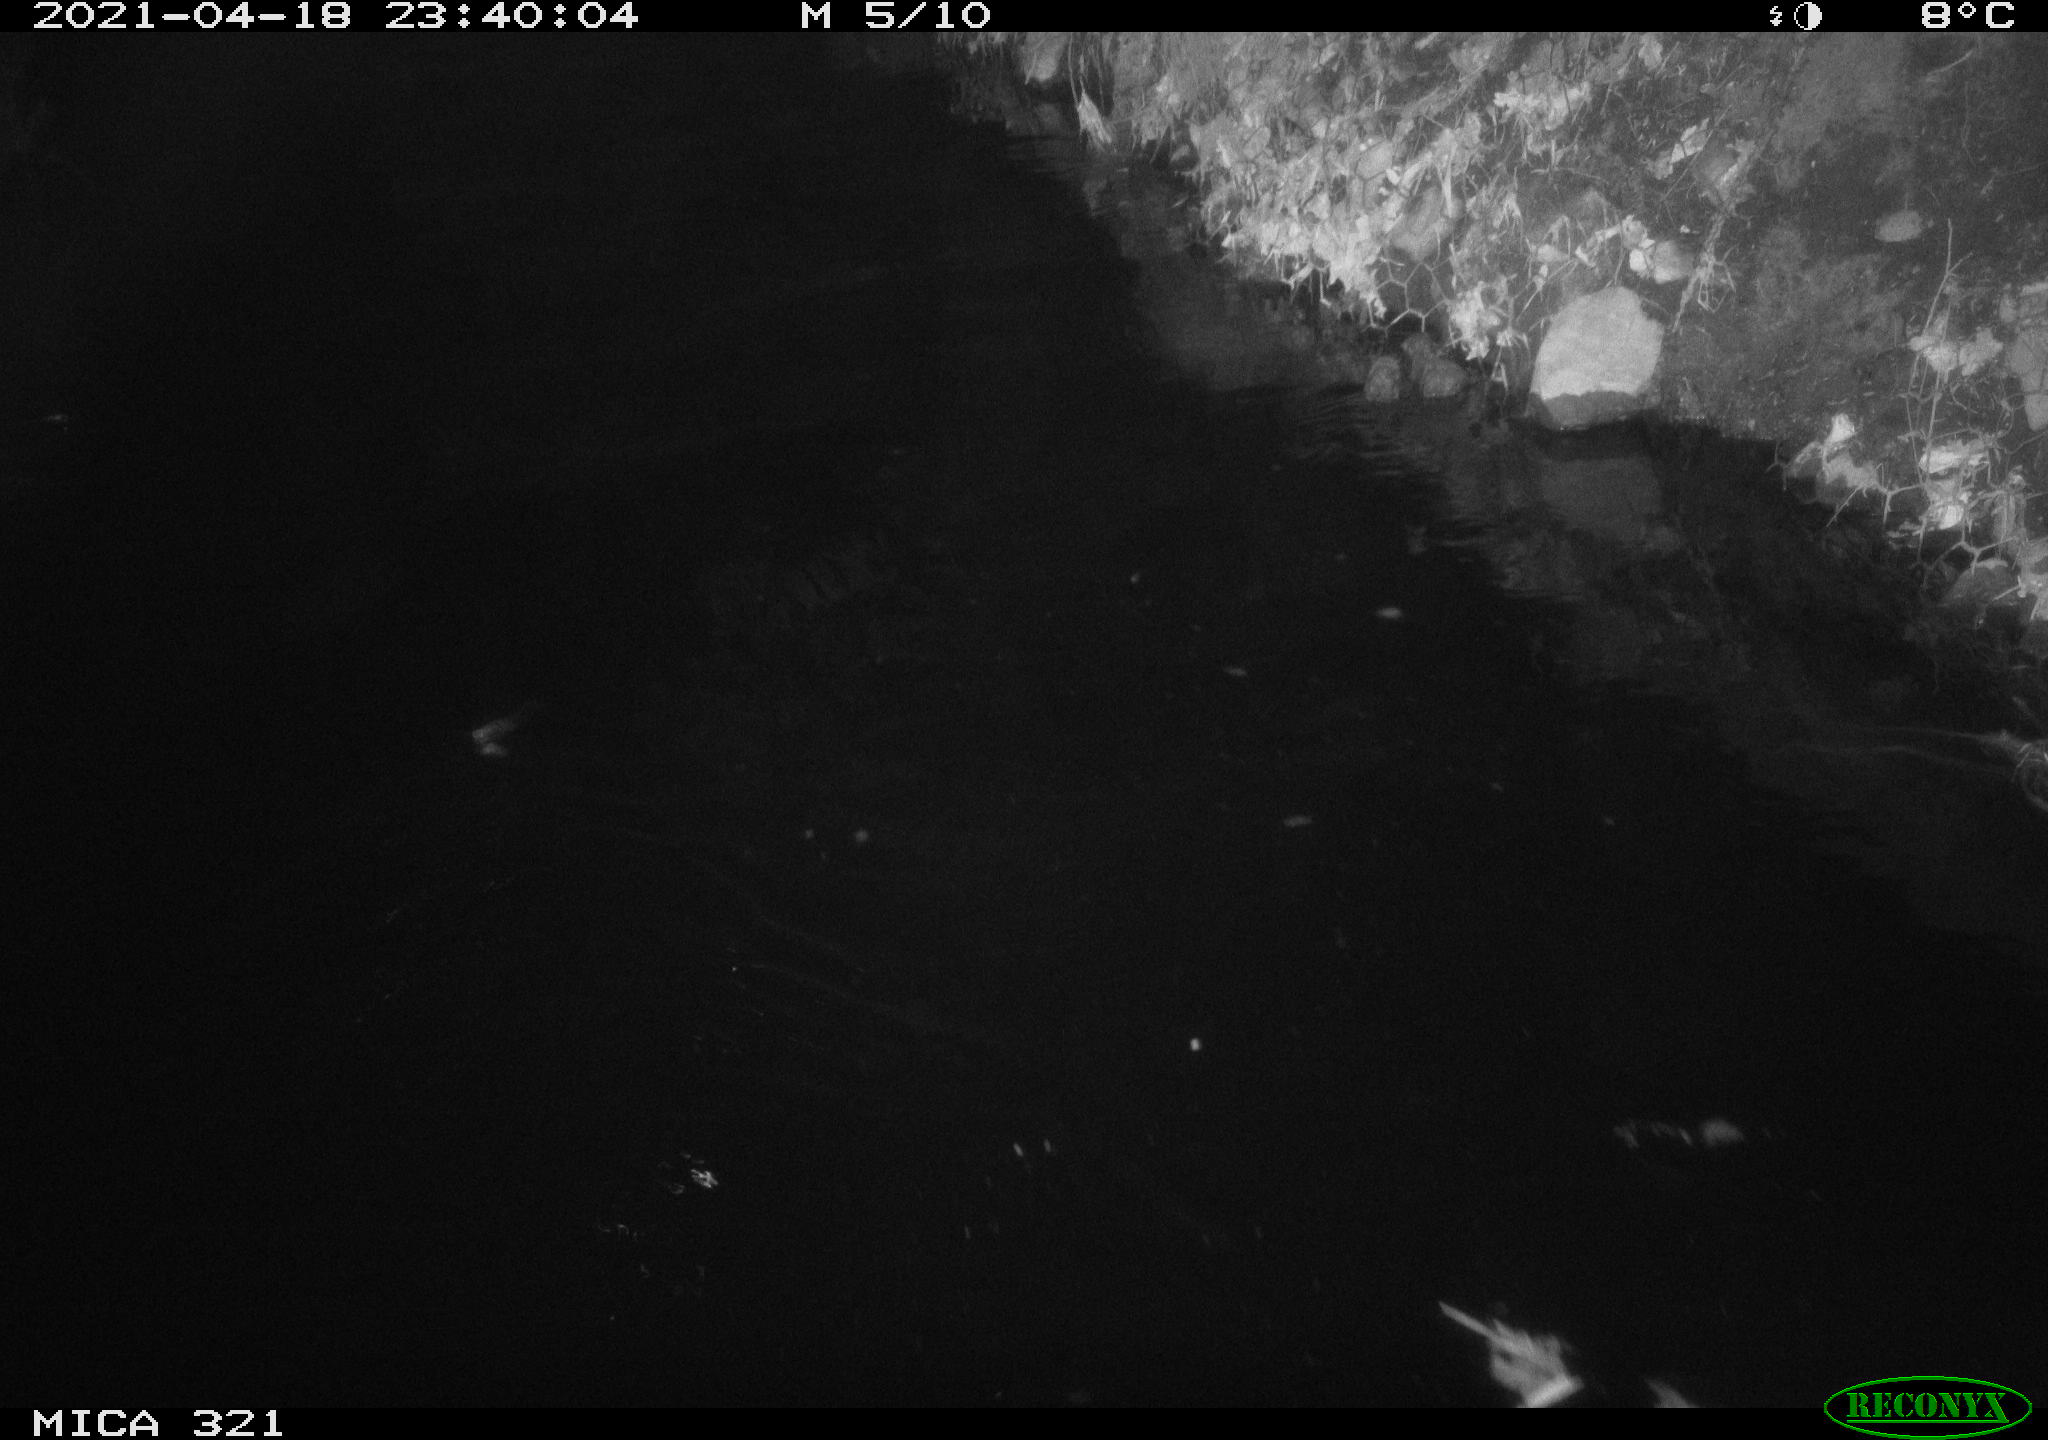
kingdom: Animalia
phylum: Chordata
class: Aves
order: Anseriformes
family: Anatidae
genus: Anas
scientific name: Anas
